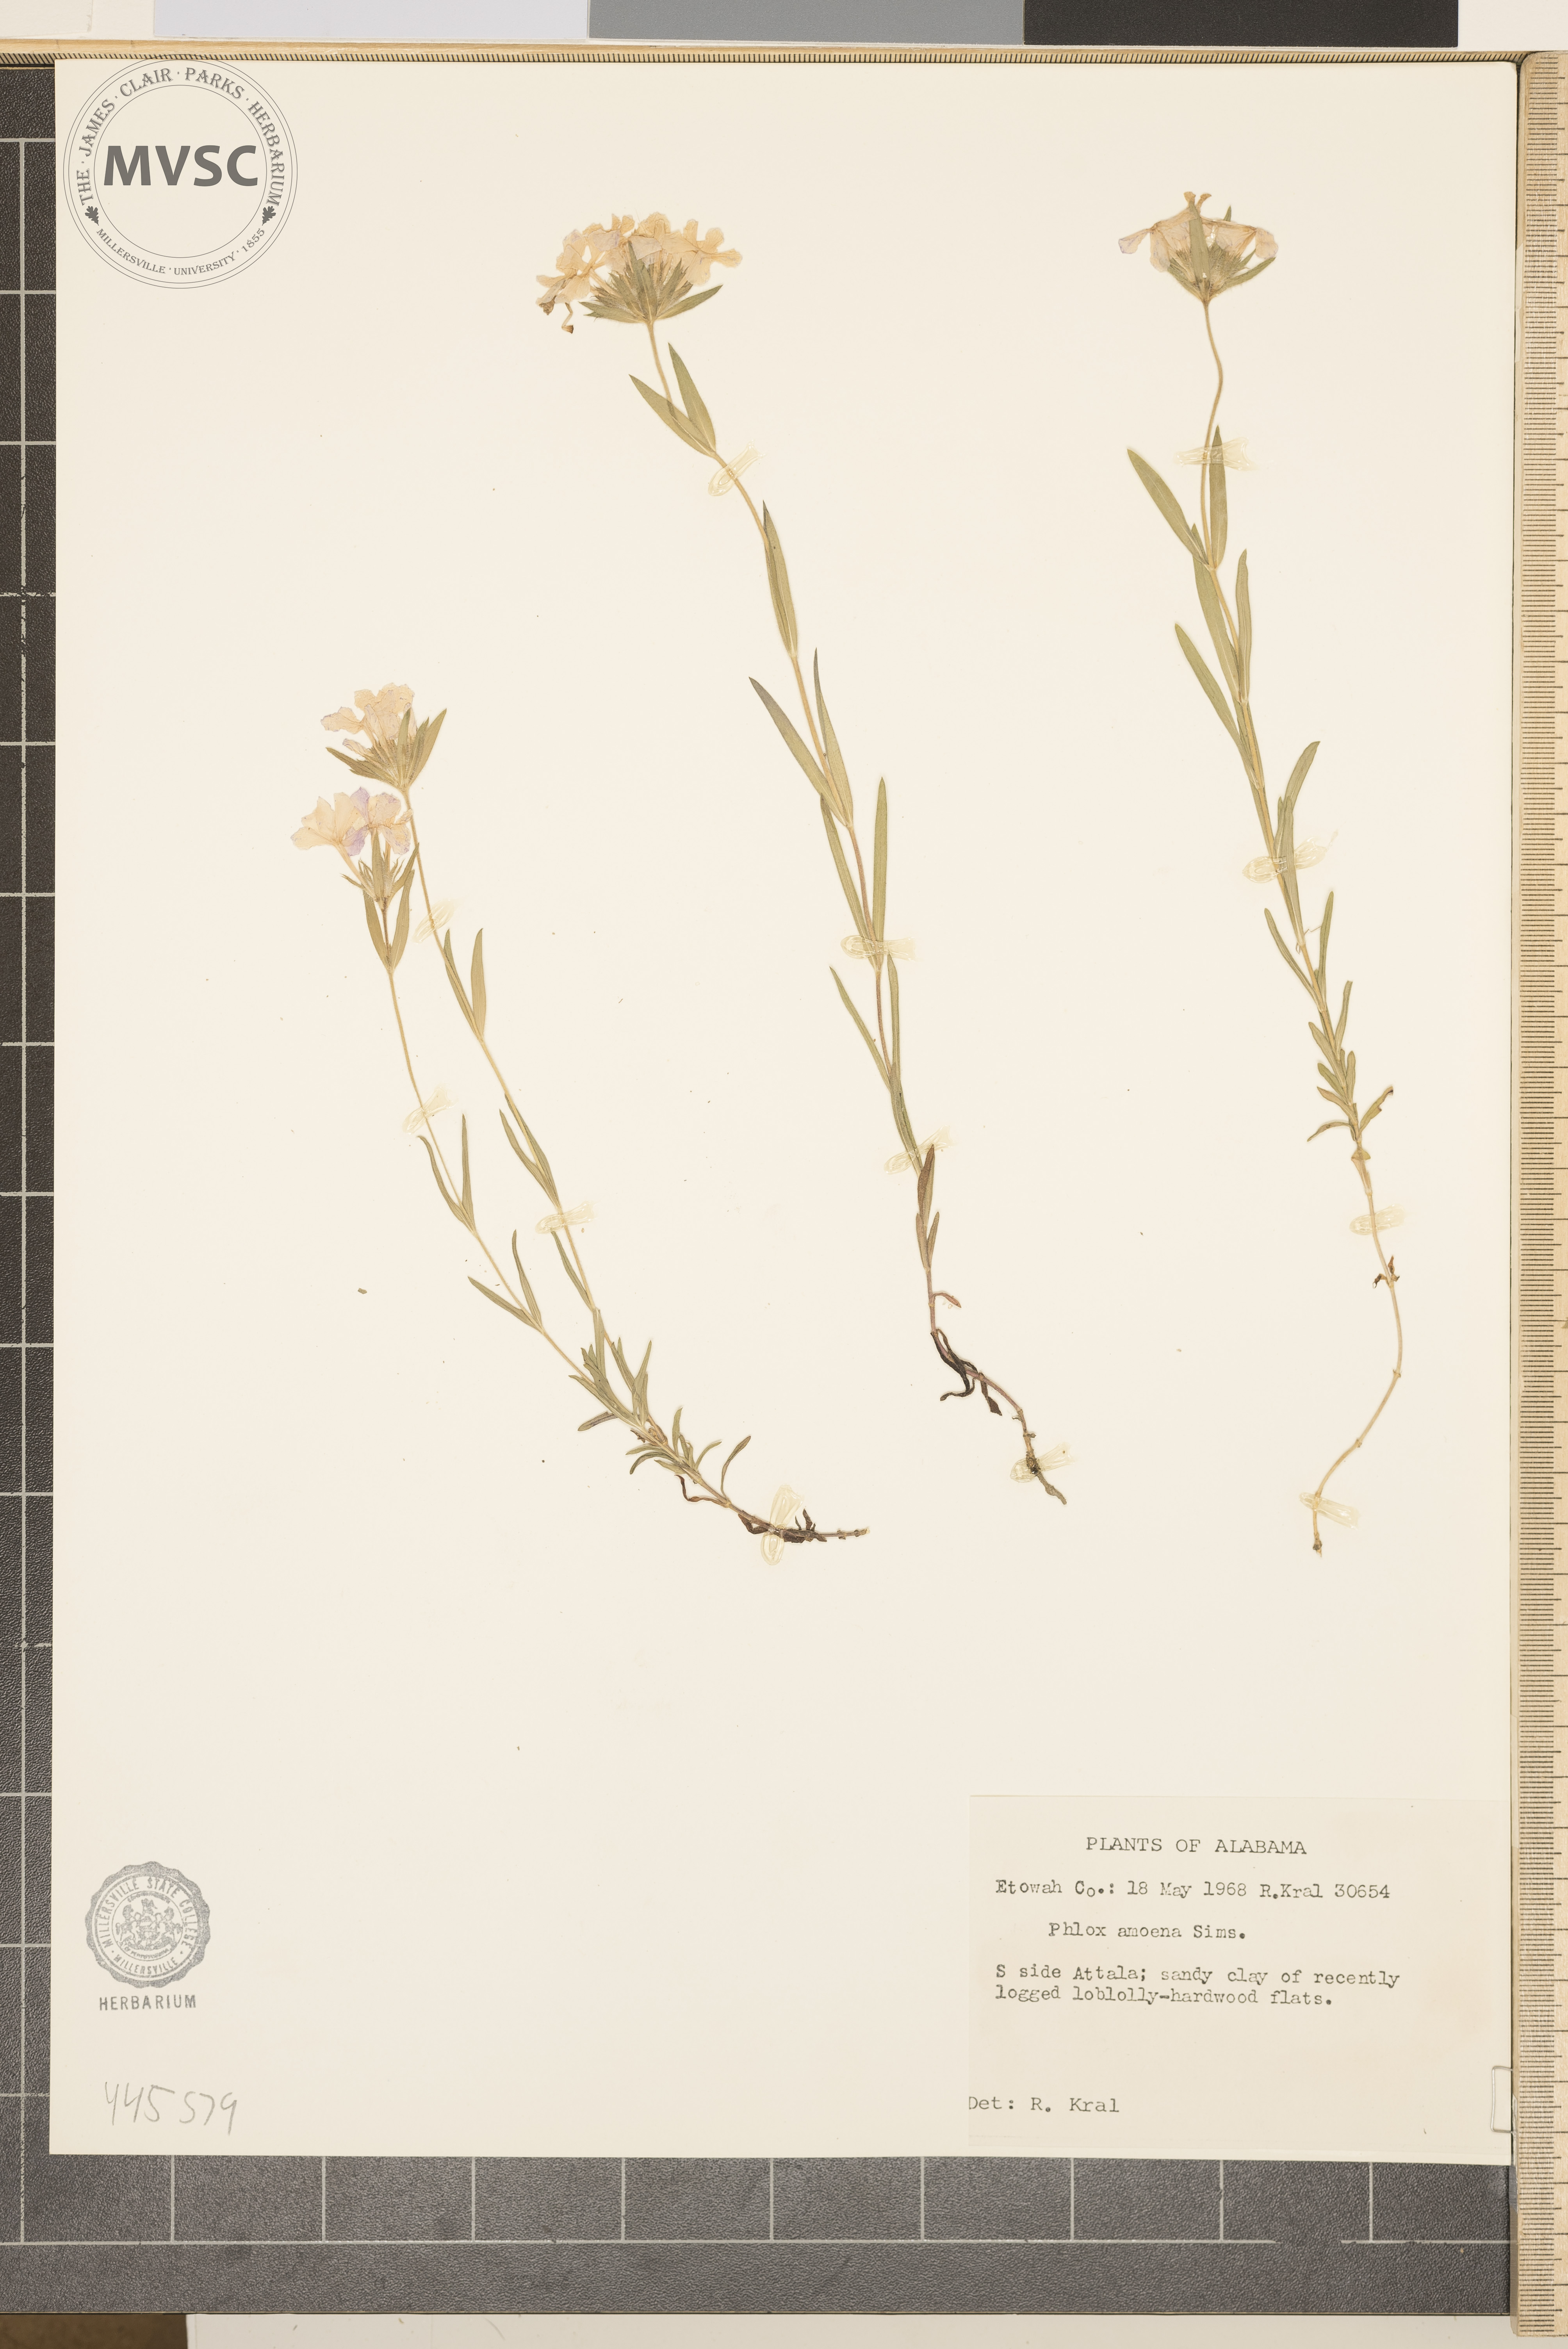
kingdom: Plantae
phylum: Tracheophyta
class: Magnoliopsida
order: Ericales
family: Polemoniaceae
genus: Phlox
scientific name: Phlox amoena
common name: Hairy phlox
